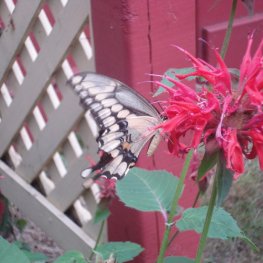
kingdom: Animalia
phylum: Arthropoda
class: Insecta
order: Lepidoptera
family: Papilionidae
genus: Papilio
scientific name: Papilio cresphontes
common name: Eastern Giant Swallowtail
